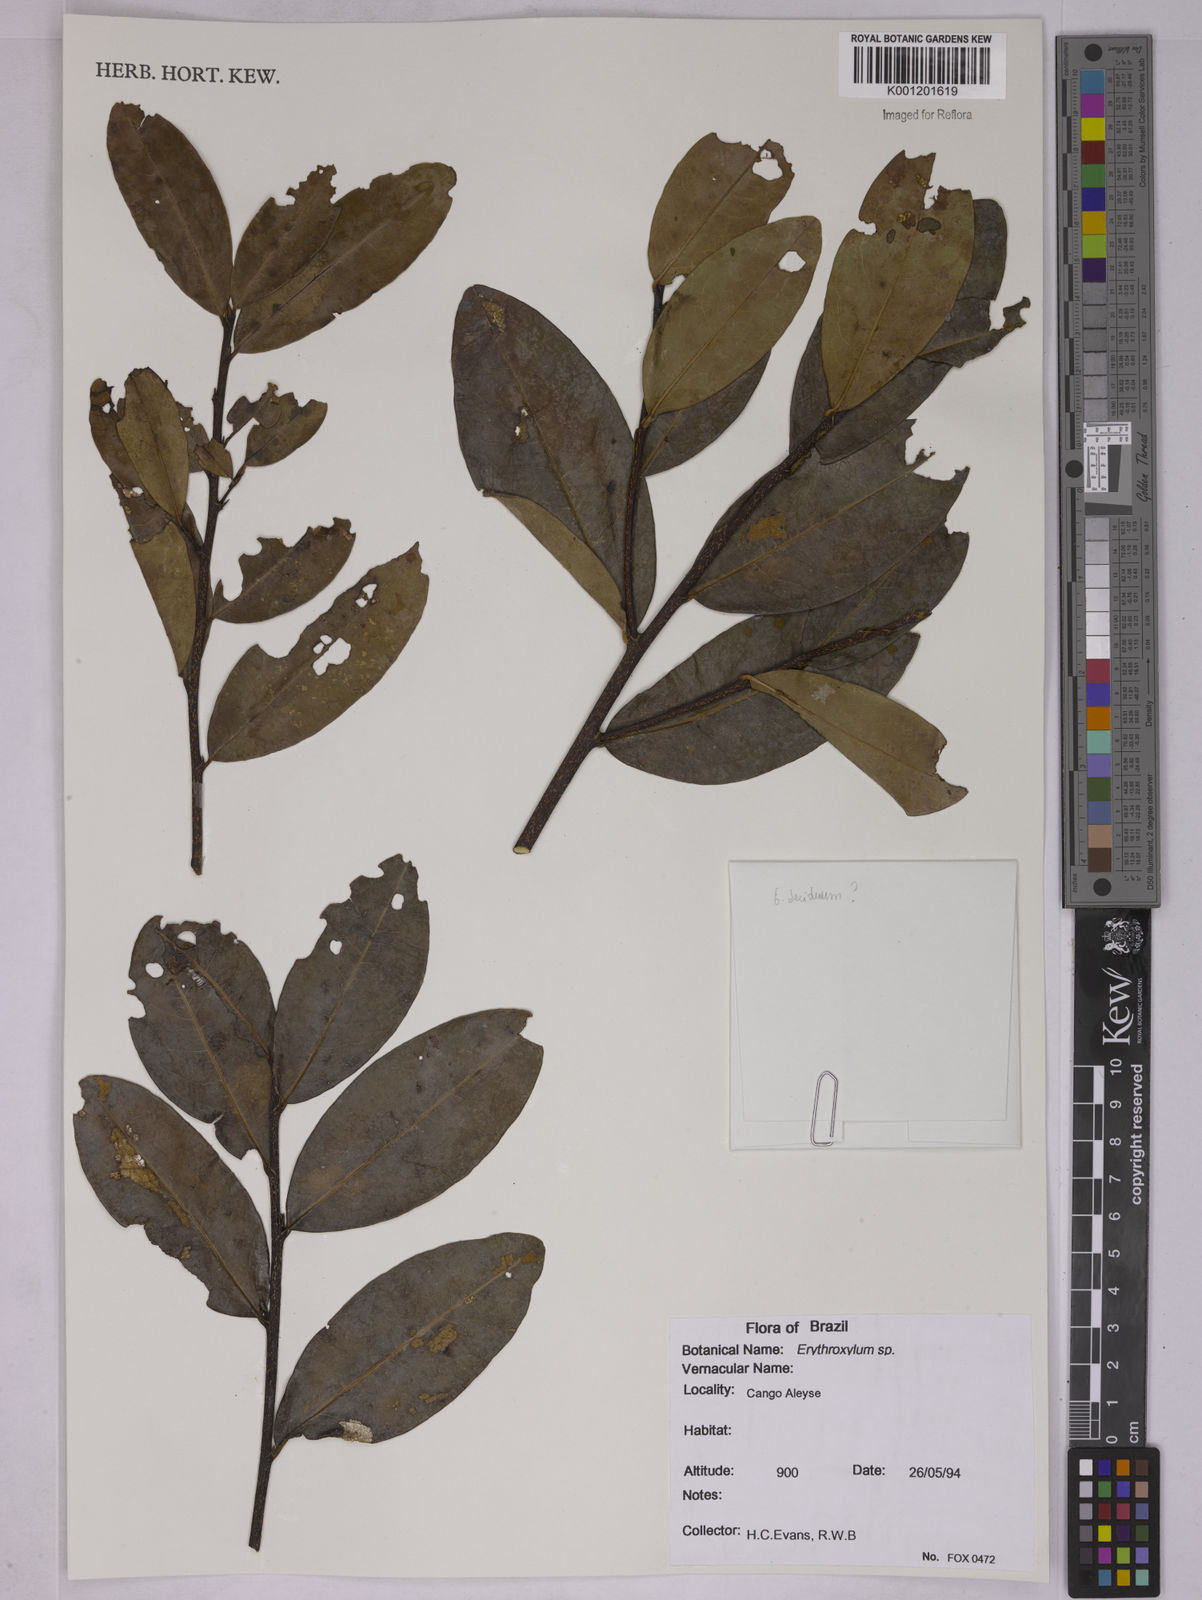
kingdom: Plantae
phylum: Tracheophyta
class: Magnoliopsida
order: Malpighiales
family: Erythroxylaceae
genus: Erythroxylum
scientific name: Erythroxylum
